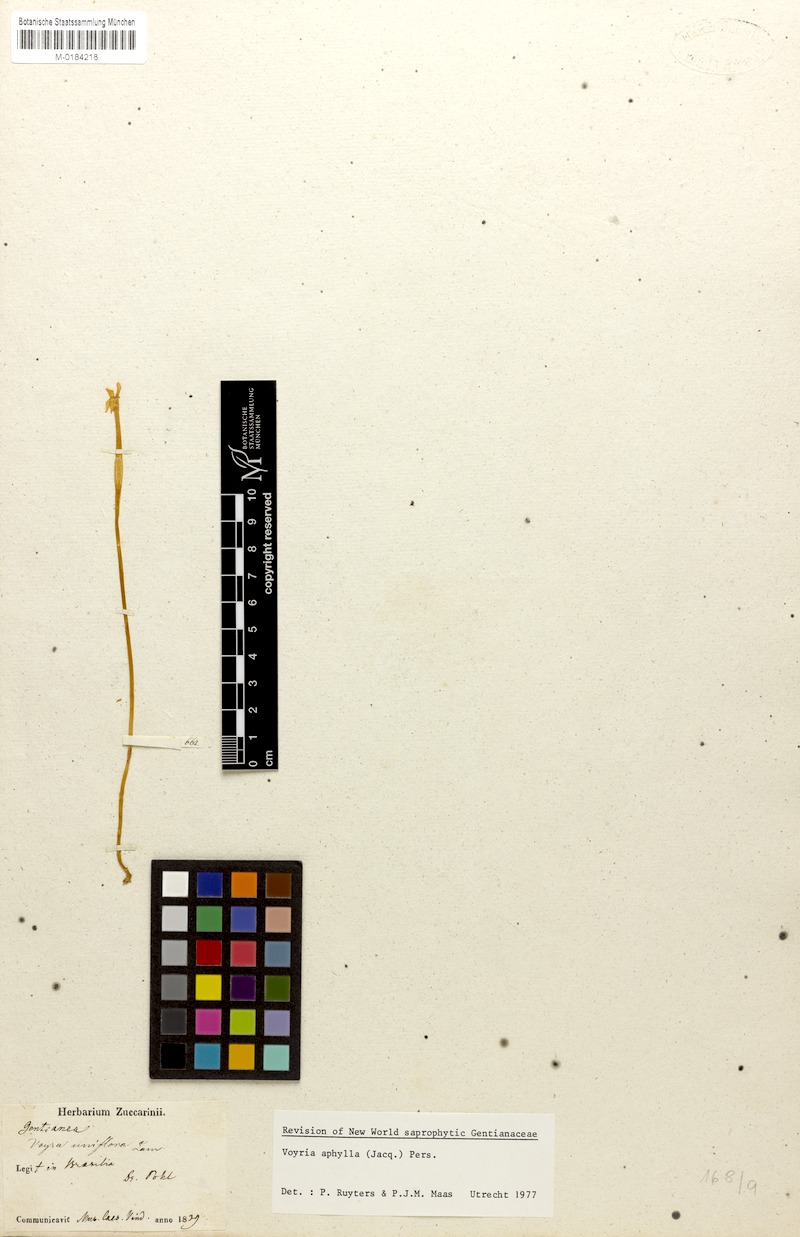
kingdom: Plantae
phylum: Tracheophyta
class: Magnoliopsida
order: Gentianales
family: Gentianaceae
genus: Voyria
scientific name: Voyria aphylla
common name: Leafless ghost plant
